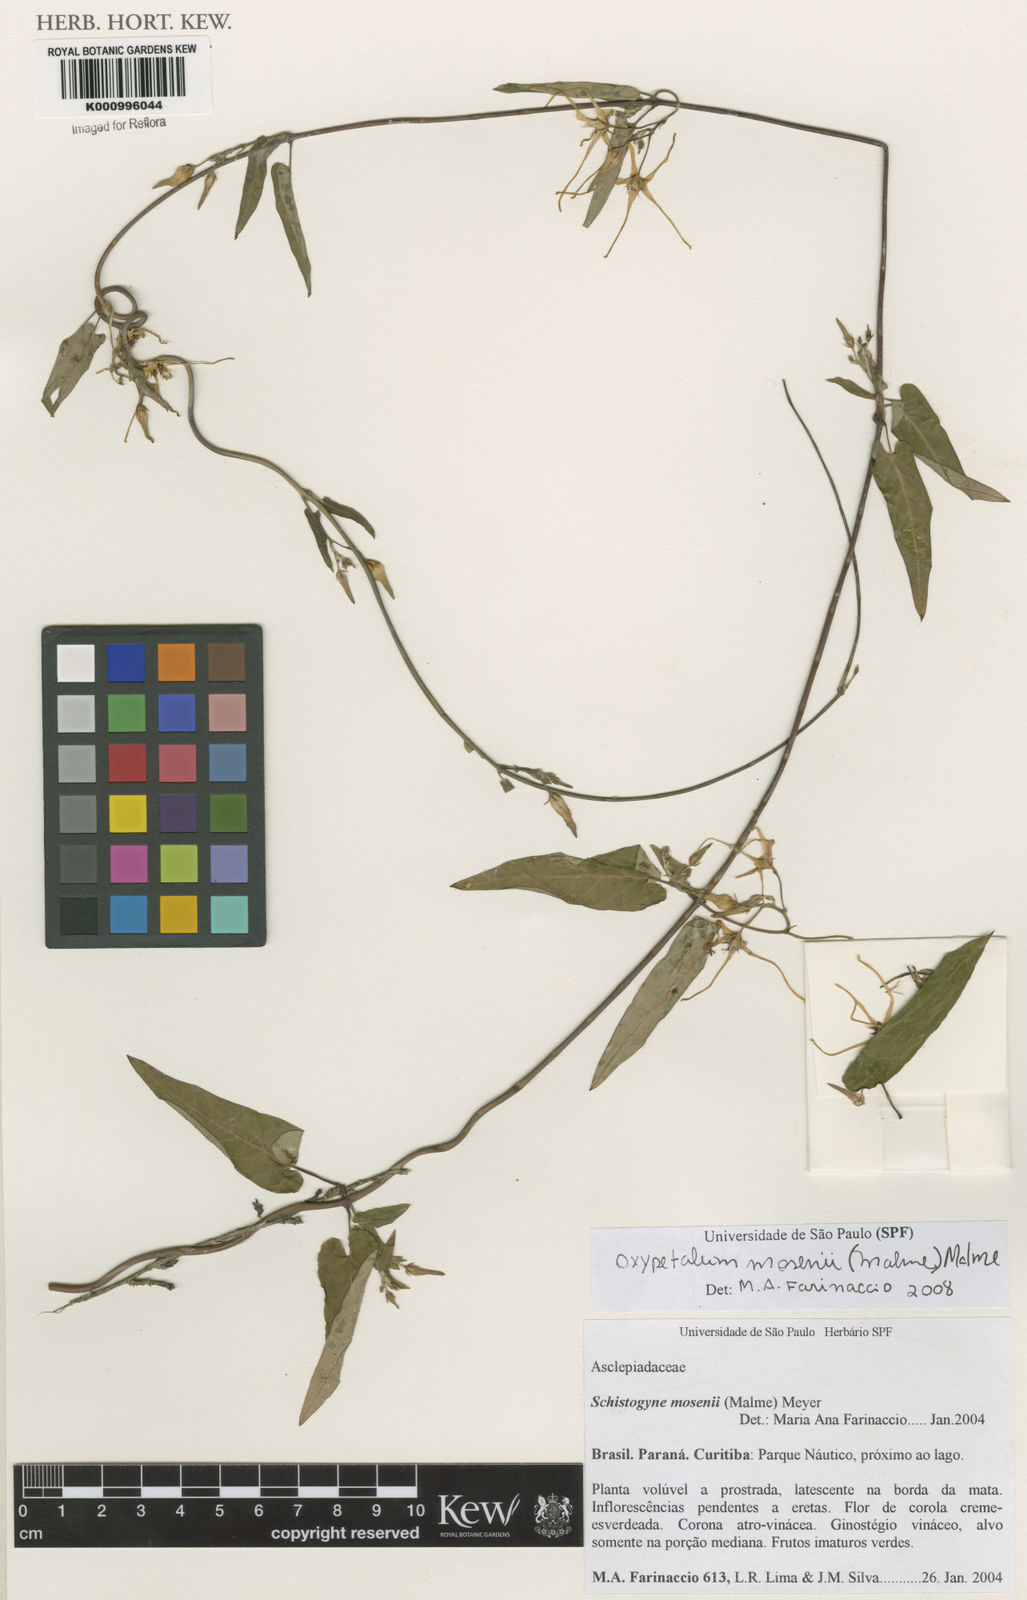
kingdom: Plantae
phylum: Tracheophyta
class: Magnoliopsida
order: Gentianales
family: Apocynaceae
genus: Oxypetalum
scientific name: Oxypetalum mosenii
